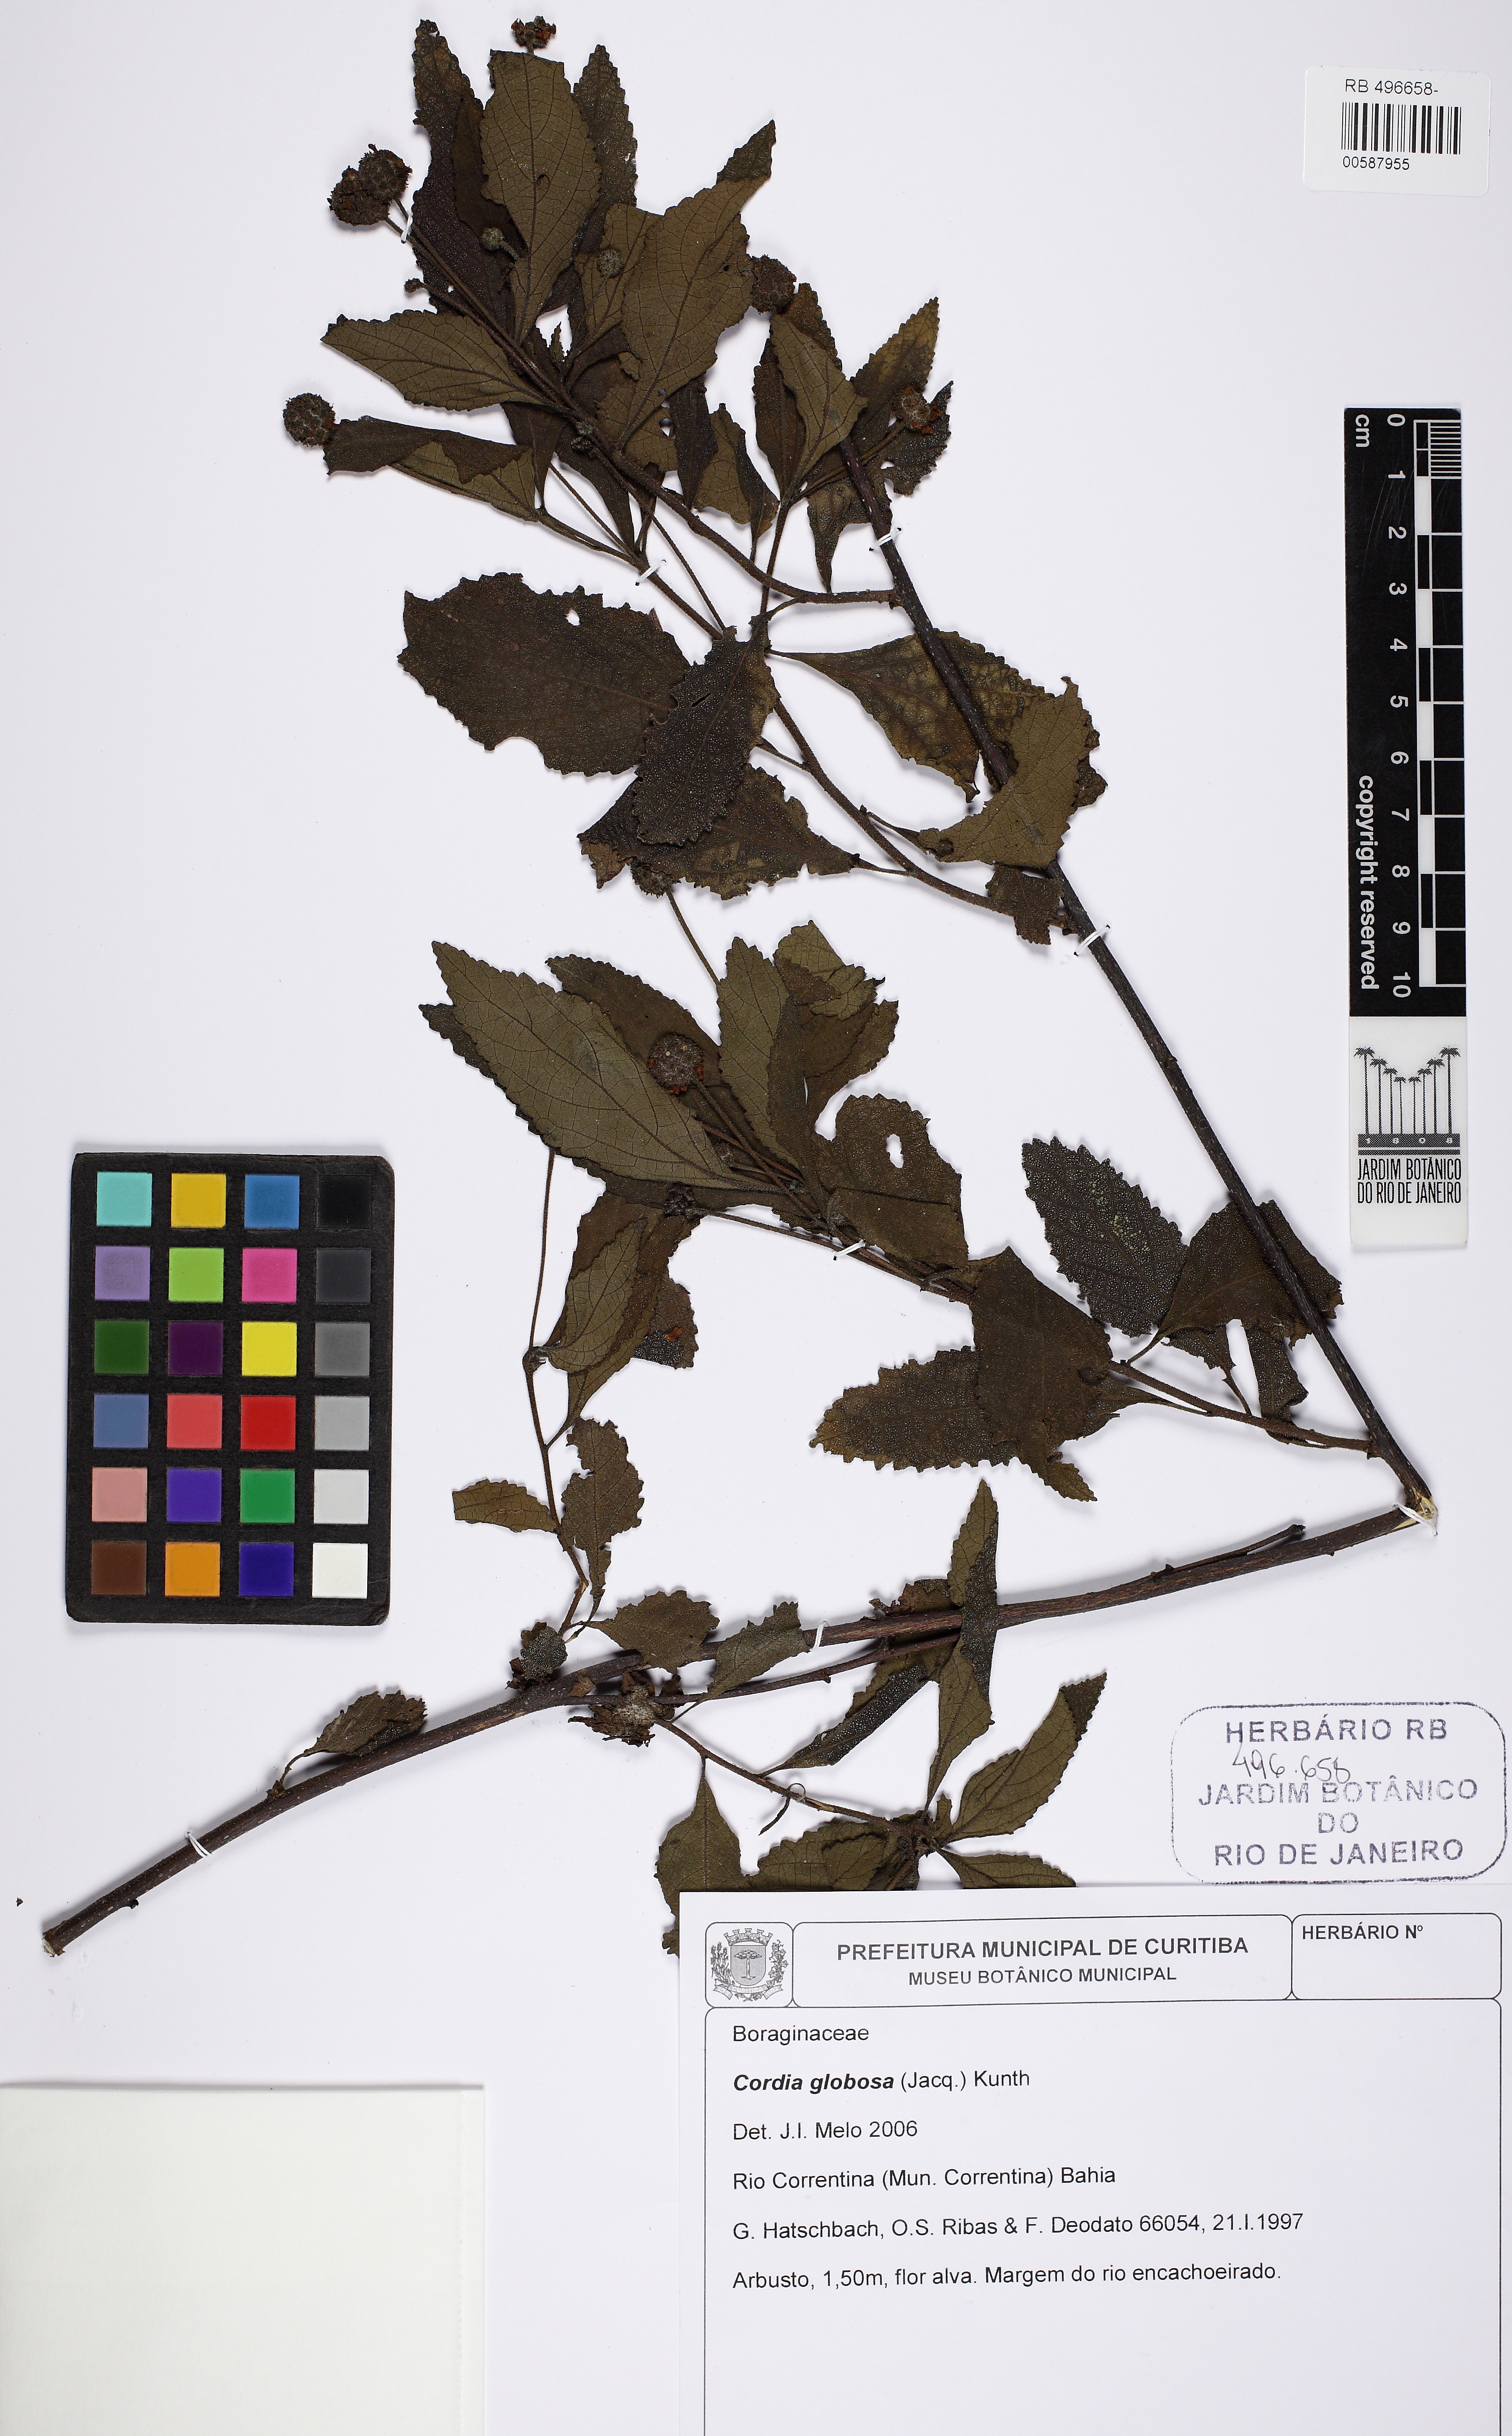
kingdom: Plantae
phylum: Tracheophyta
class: Magnoliopsida
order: Boraginales
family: Cordiaceae
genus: Varronia
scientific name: Varronia bullata
